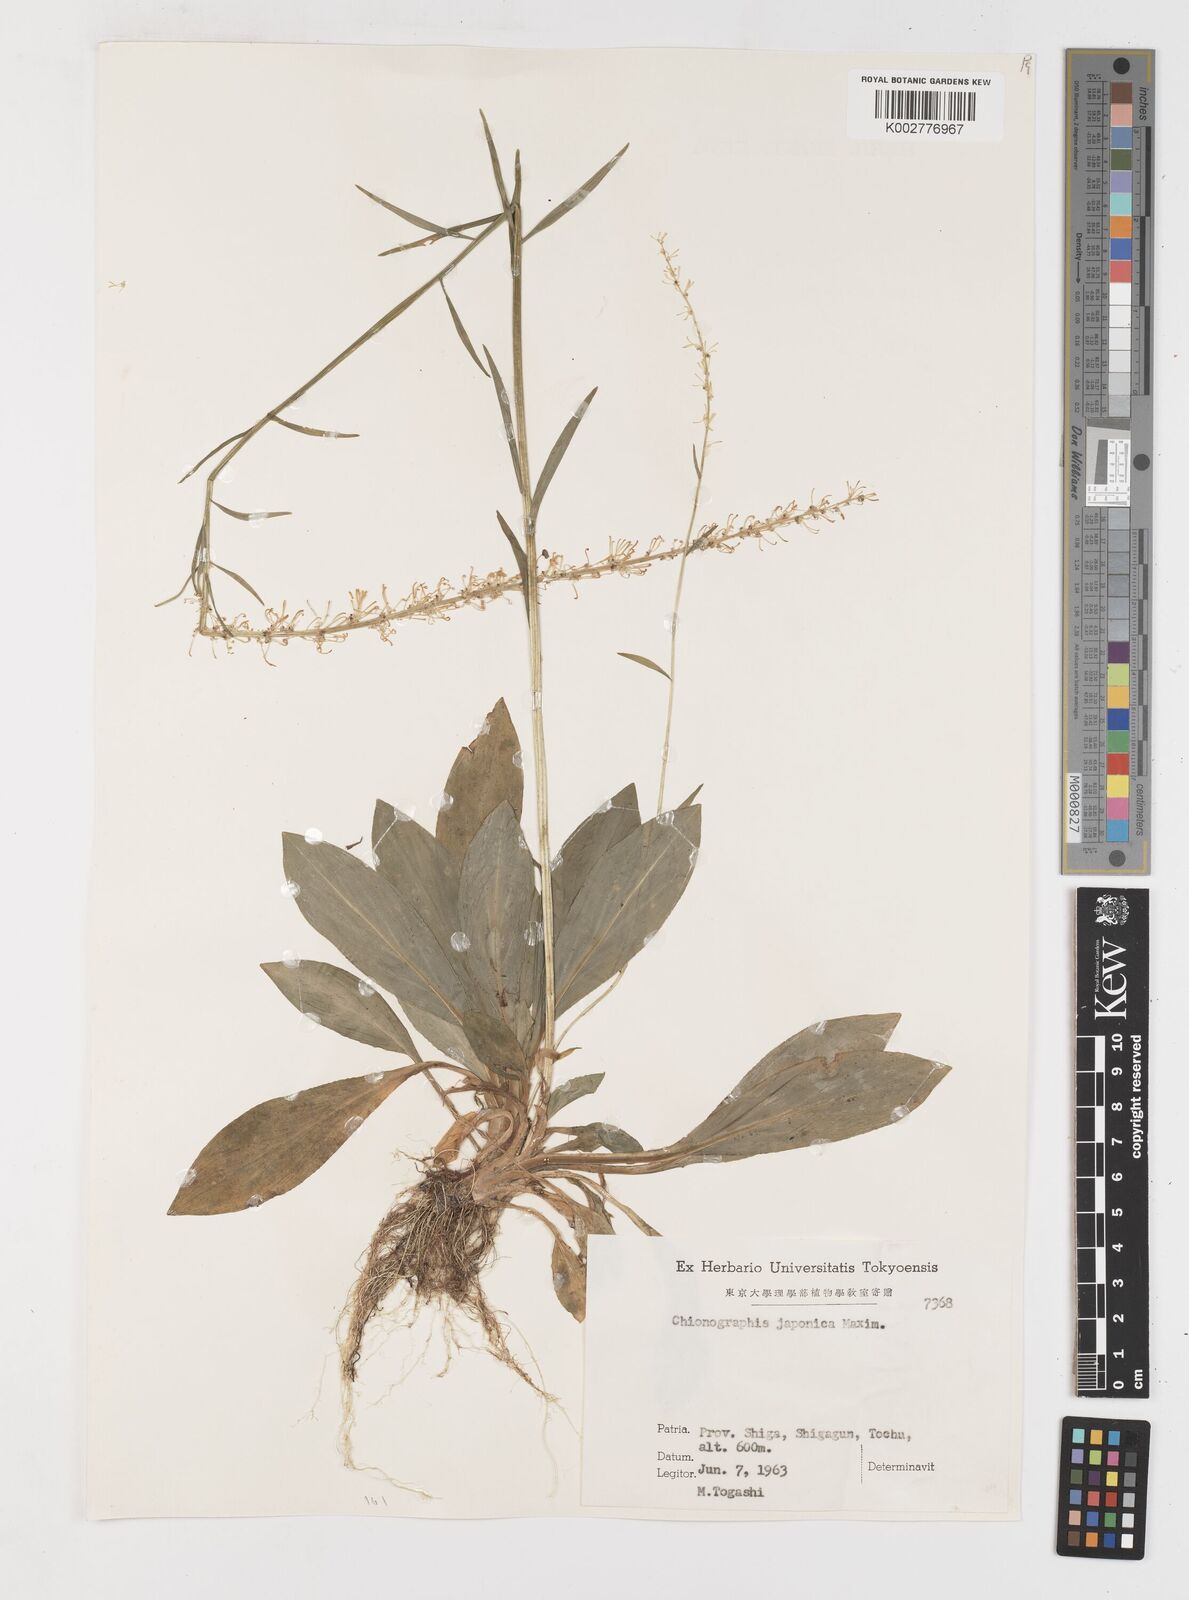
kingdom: Plantae
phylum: Tracheophyta
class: Liliopsida
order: Liliales
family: Melanthiaceae
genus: Chamaelirium
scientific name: Chamaelirium japonicum
